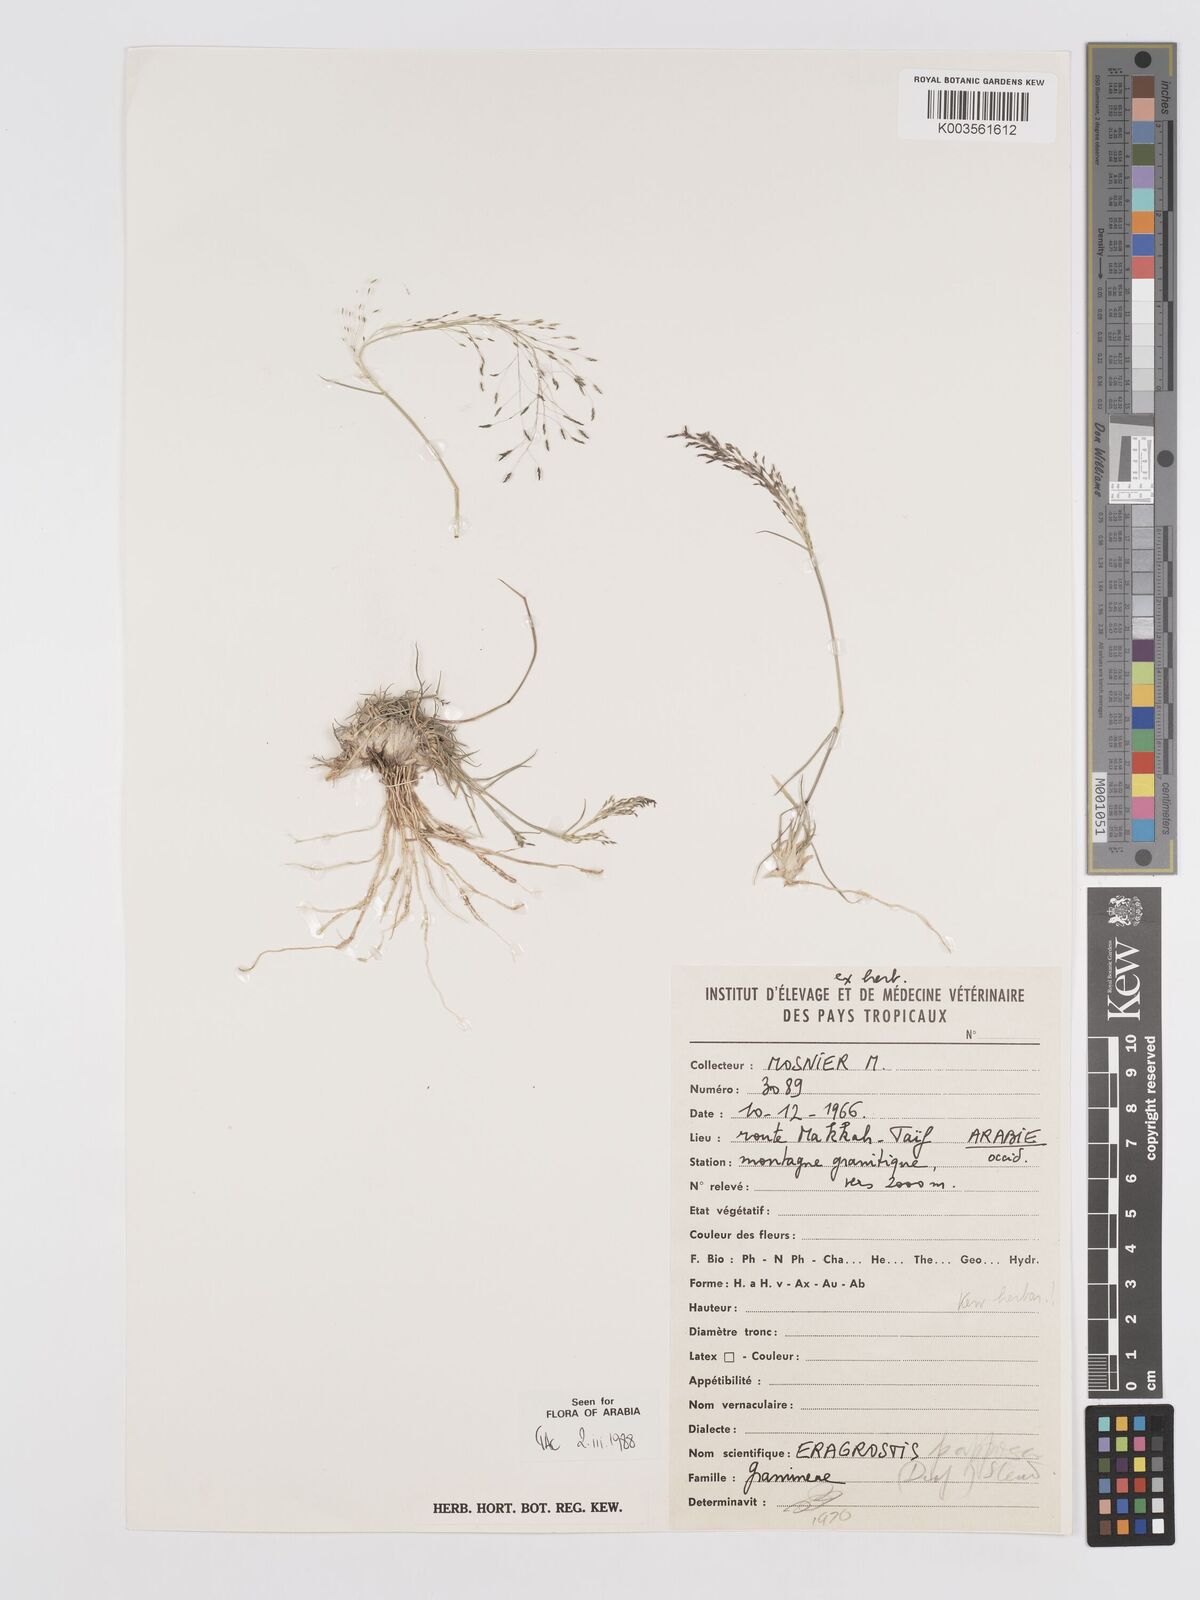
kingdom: Plantae
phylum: Tracheophyta
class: Liliopsida
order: Poales
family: Poaceae
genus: Eragrostis
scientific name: Eragrostis papposa
